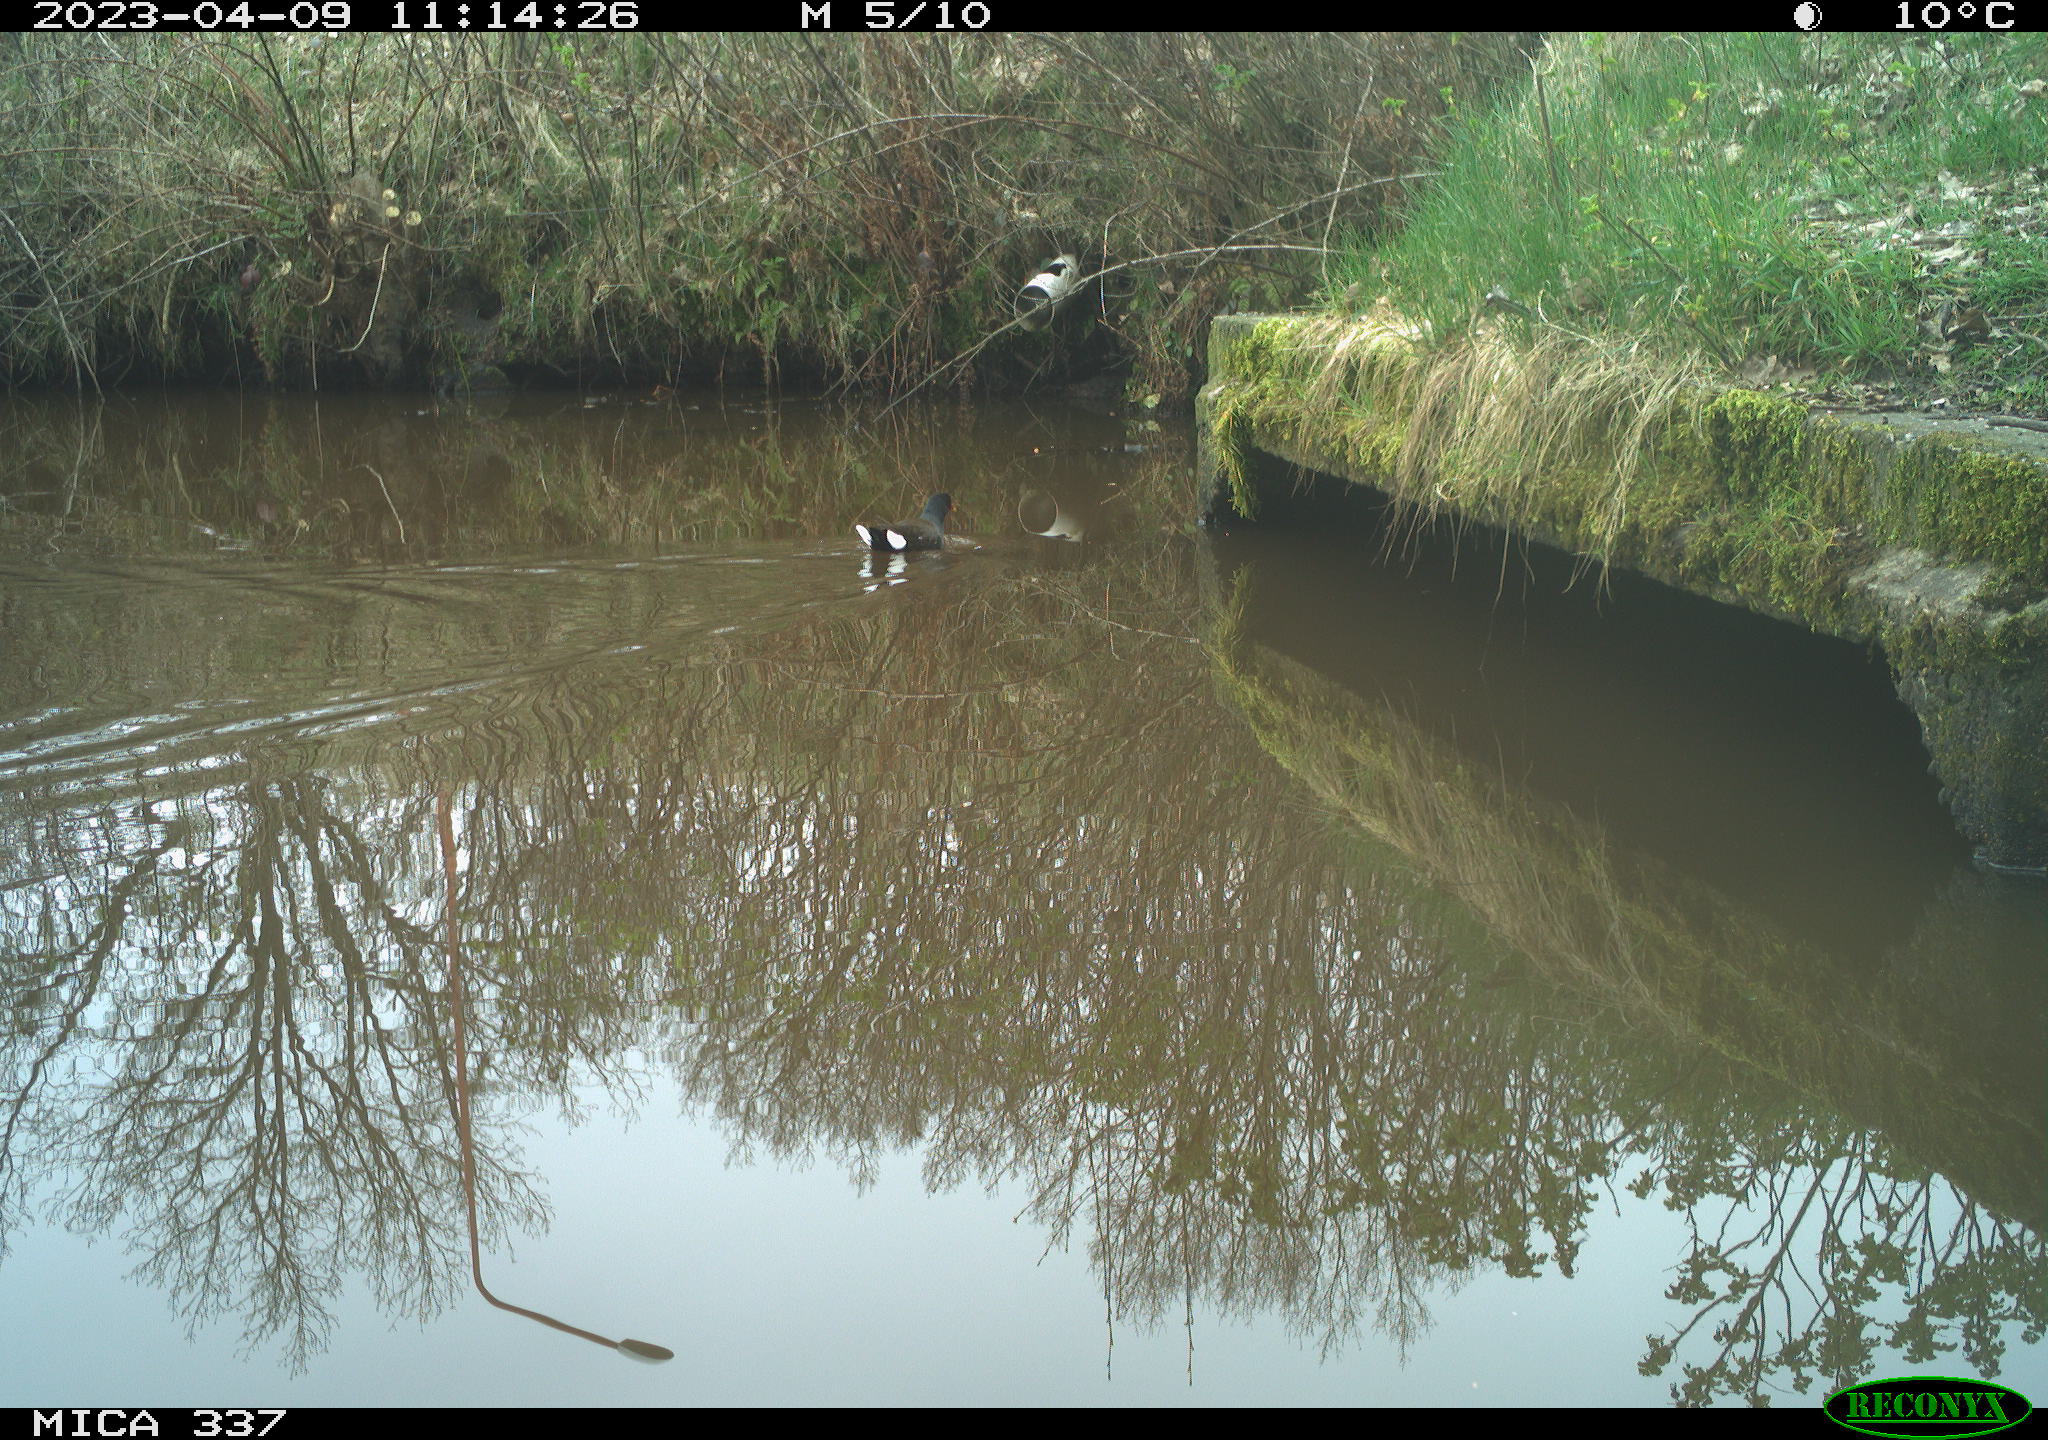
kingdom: Animalia
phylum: Chordata
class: Aves
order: Gruiformes
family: Rallidae
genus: Gallinula
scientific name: Gallinula chloropus
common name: Common moorhen
